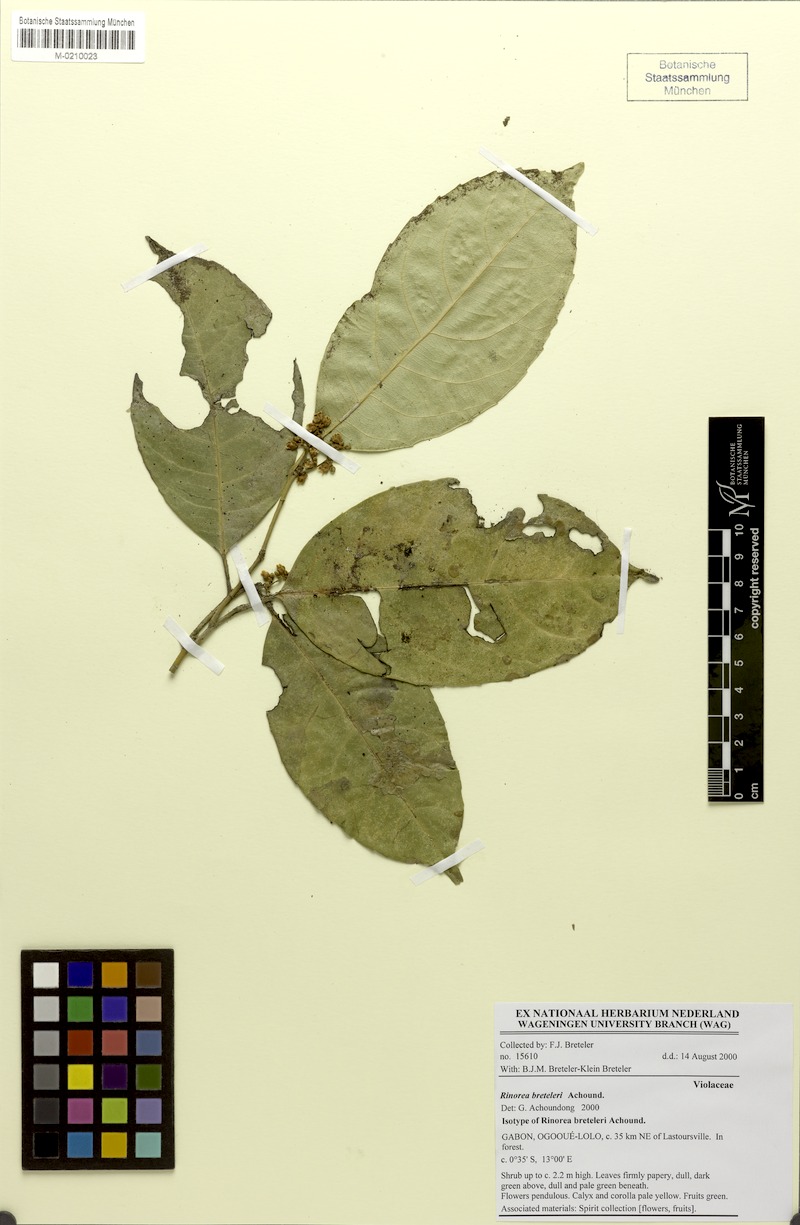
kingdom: Plantae
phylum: Tracheophyta
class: Magnoliopsida
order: Malpighiales
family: Violaceae
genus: Rinorea
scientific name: Rinorea breteleri
